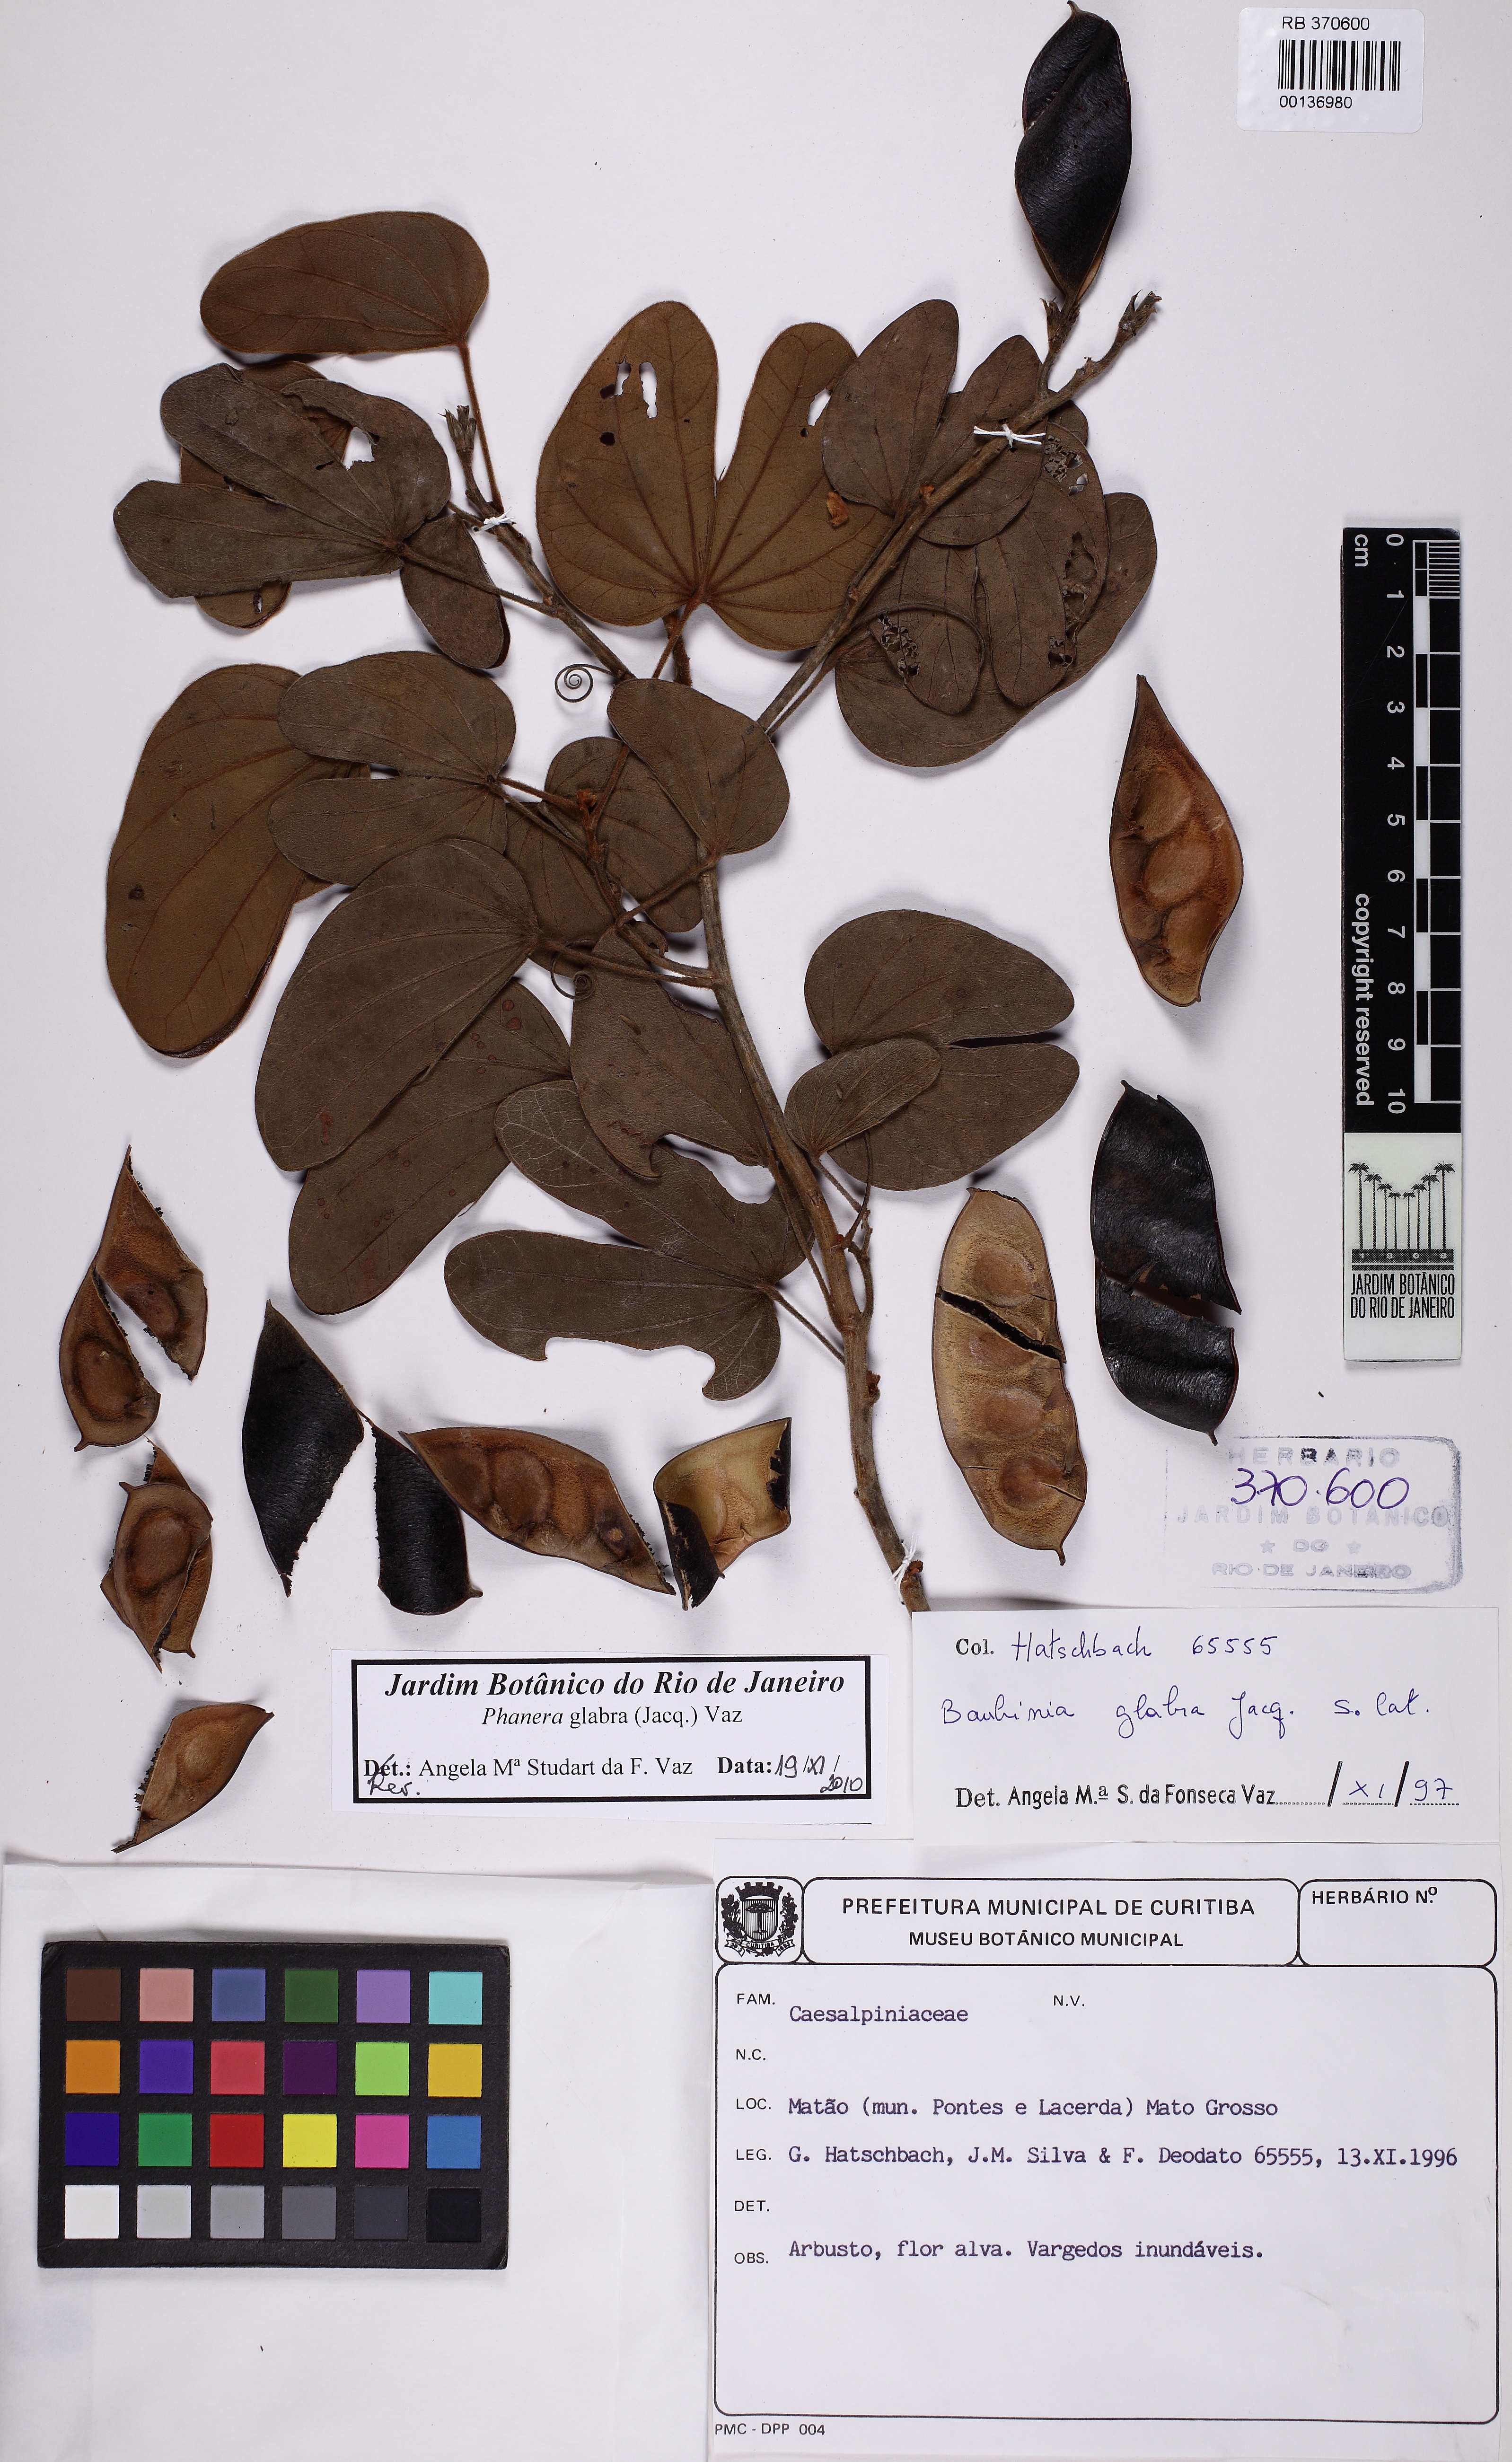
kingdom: Plantae
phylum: Tracheophyta
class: Magnoliopsida
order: Fabales
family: Fabaceae
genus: Schnella
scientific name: Schnella glabra
